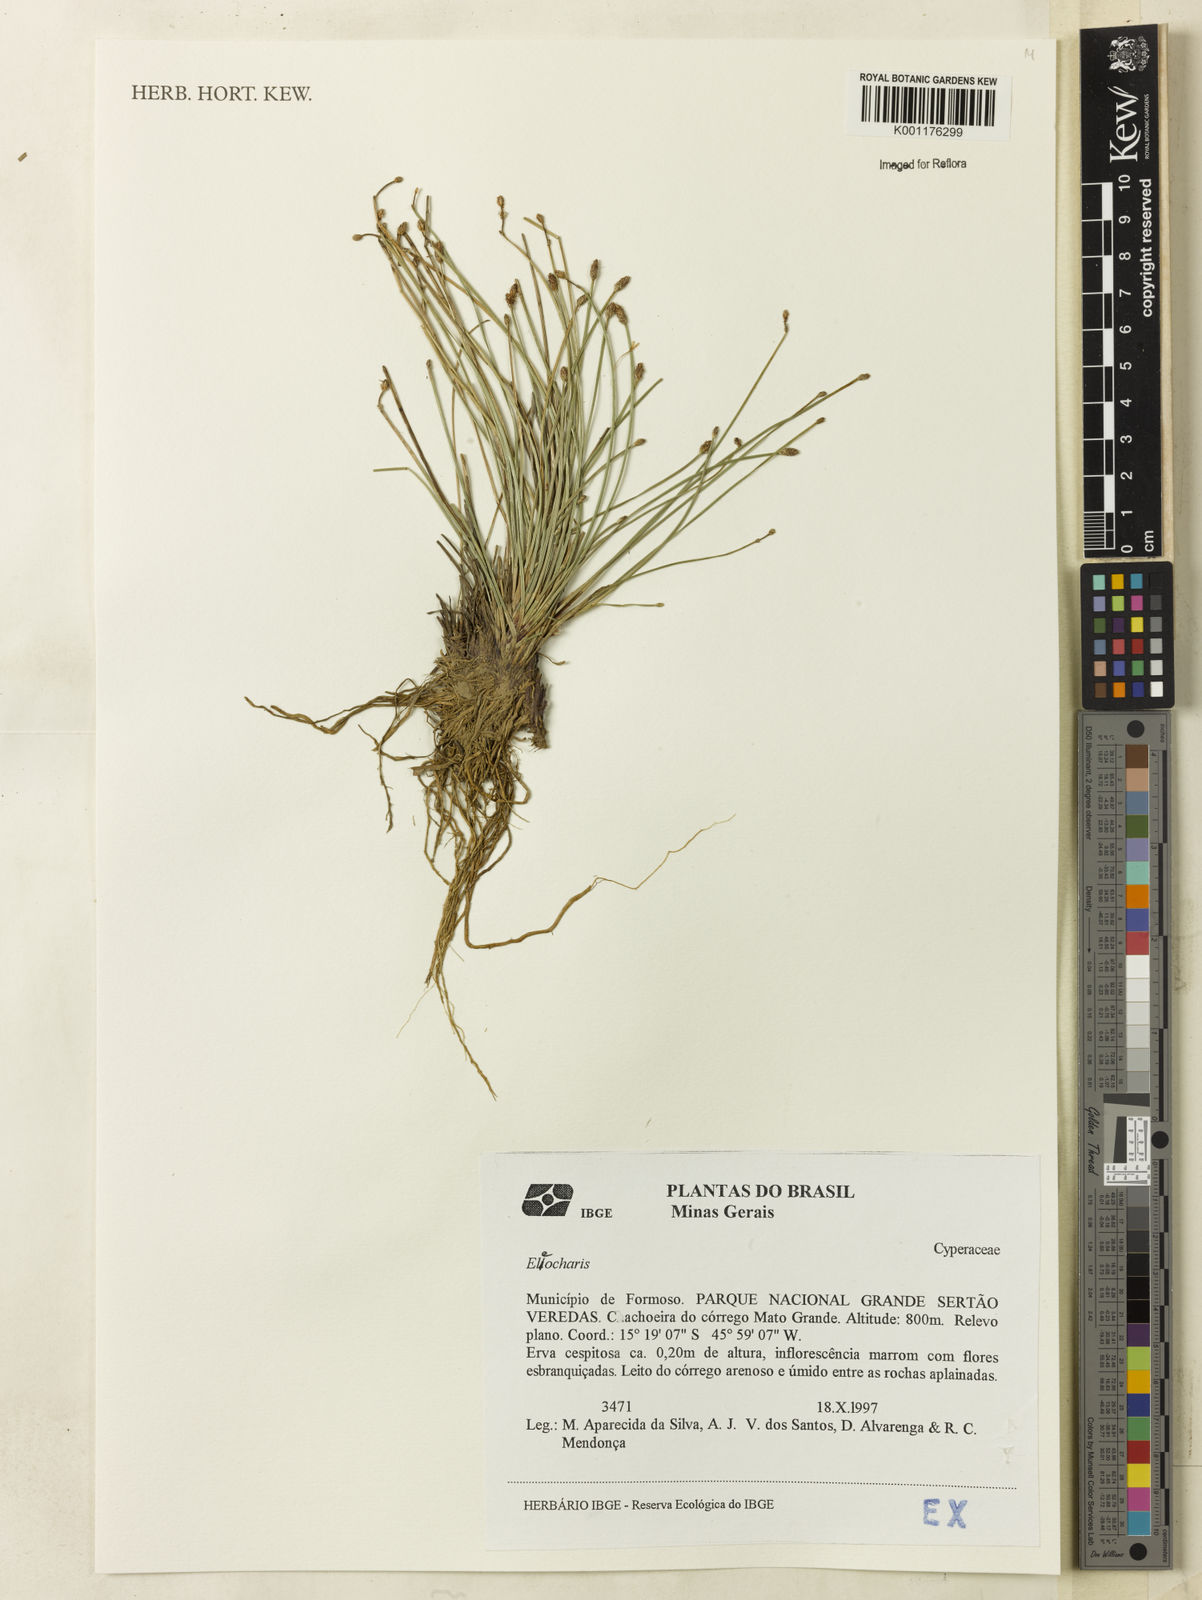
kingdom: Plantae
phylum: Tracheophyta
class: Liliopsida
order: Poales
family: Cyperaceae
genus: Eleocharis
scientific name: Eleocharis
